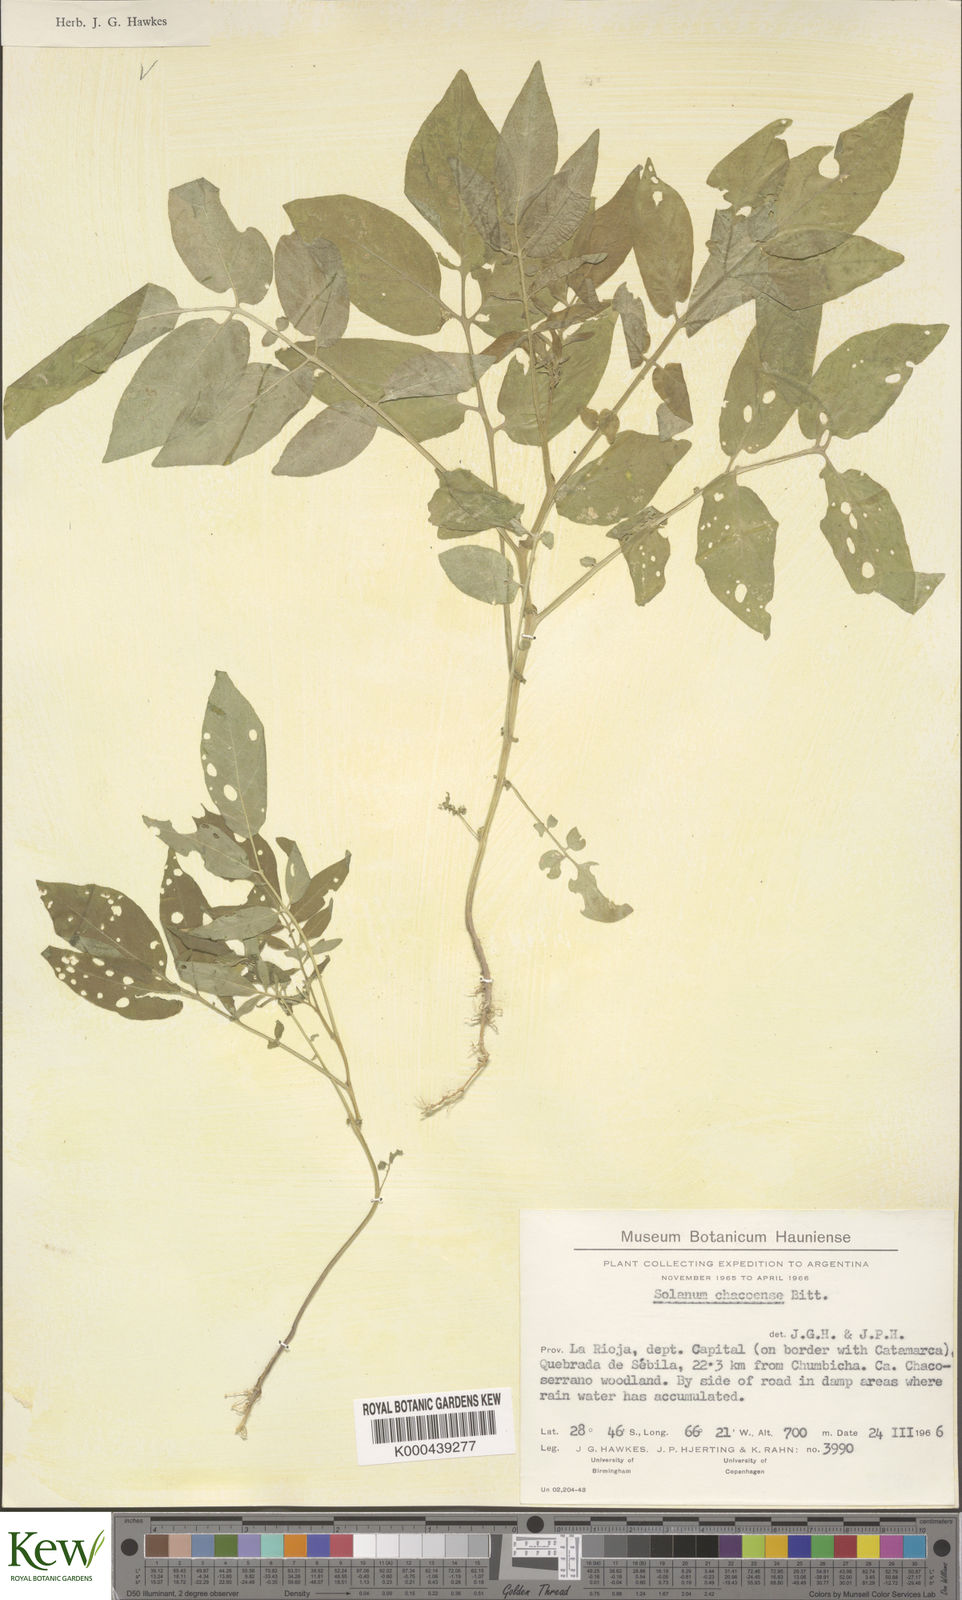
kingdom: Plantae
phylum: Tracheophyta
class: Magnoliopsida
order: Solanales
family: Solanaceae
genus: Solanum
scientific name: Solanum chacoense
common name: Chaco potato
